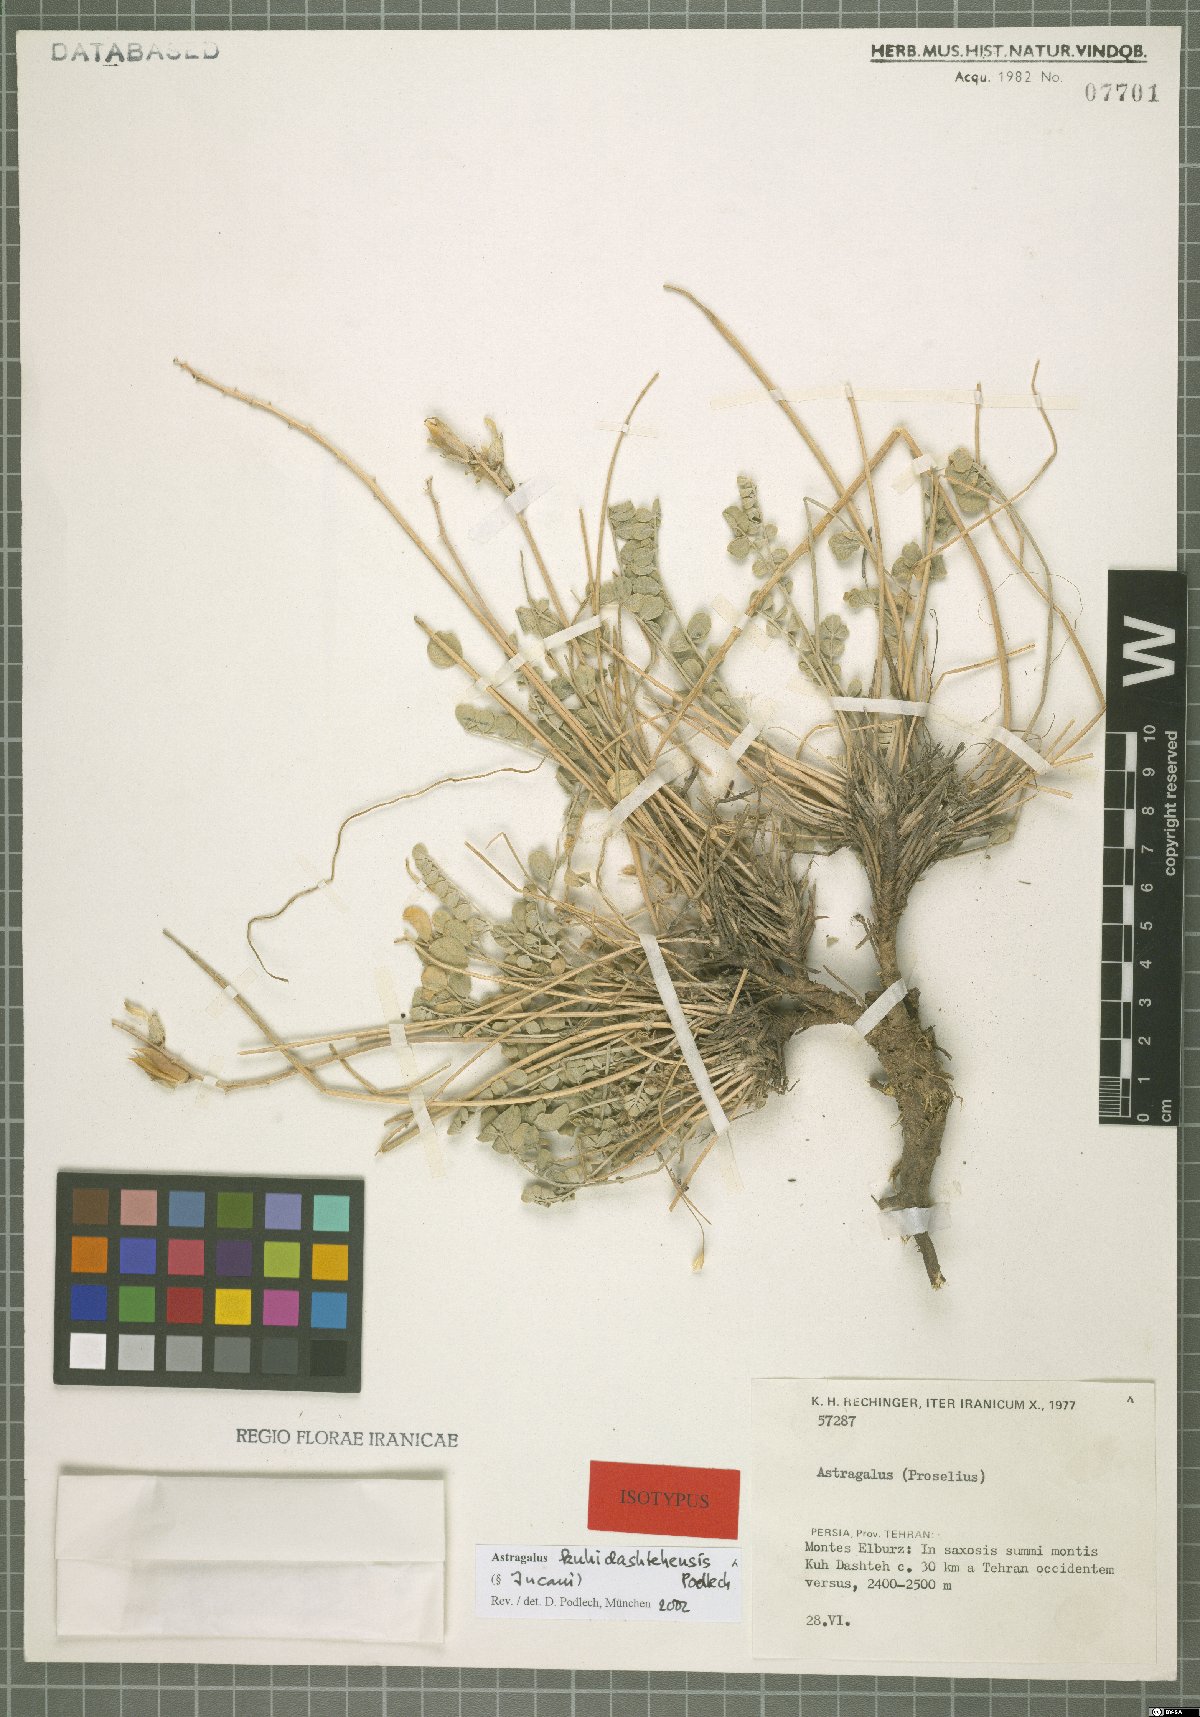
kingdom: Plantae
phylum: Tracheophyta
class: Magnoliopsida
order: Fabales
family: Fabaceae
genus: Astragalus
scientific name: Astragalus kuhidashtehensis
